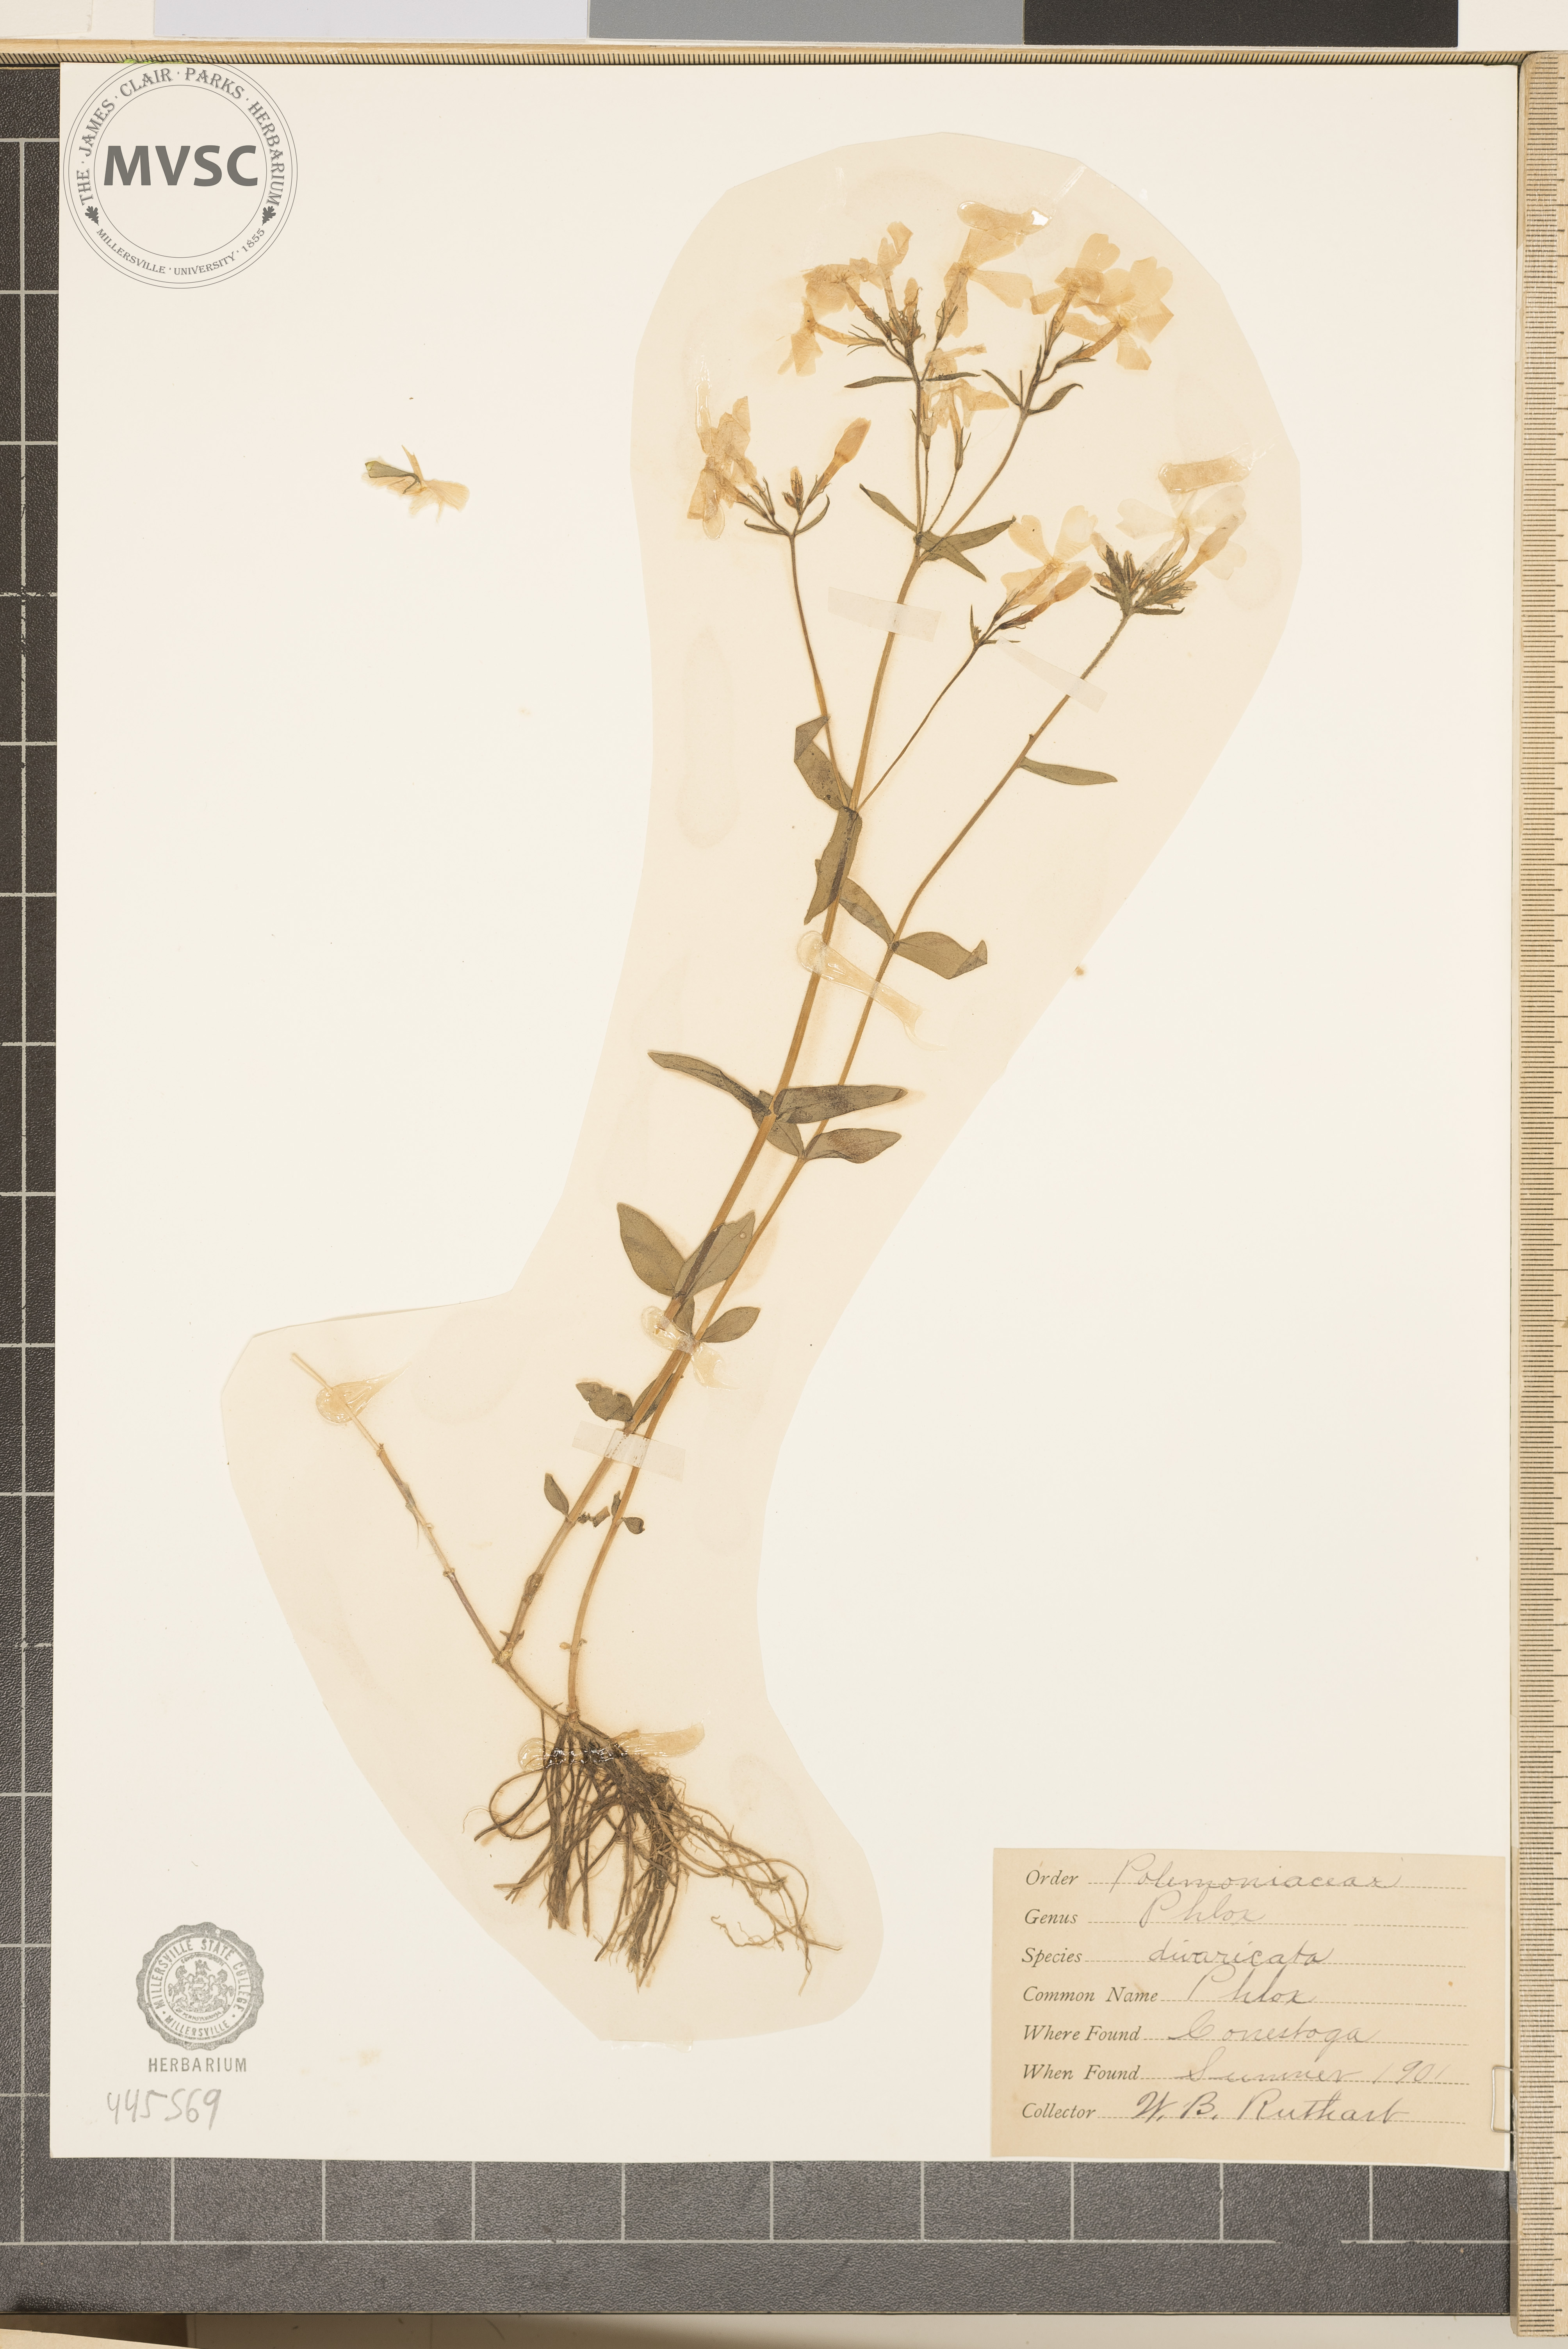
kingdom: Plantae
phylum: Tracheophyta
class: Magnoliopsida
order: Ericales
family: Polemoniaceae
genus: Phlox
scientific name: Phlox divaricata
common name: Blue phlox
